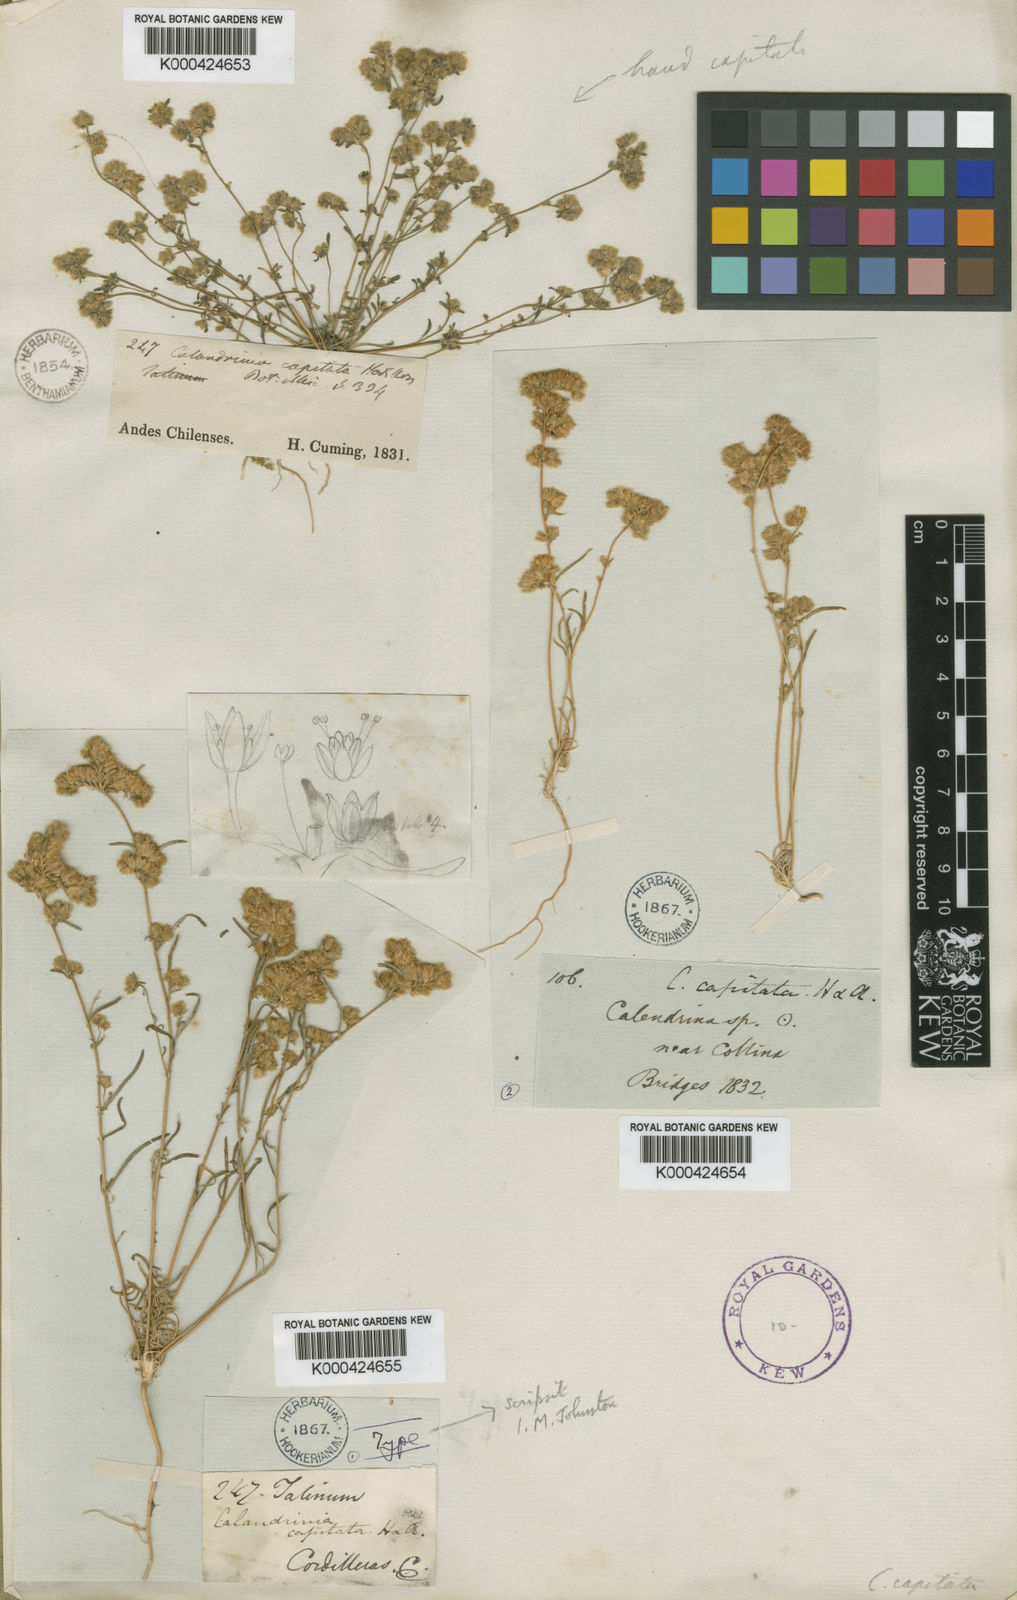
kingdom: Plantae
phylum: Tracheophyta
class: Magnoliopsida
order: Caryophyllales
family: Montiaceae
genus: Montiopsis
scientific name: Montiopsis capitata
